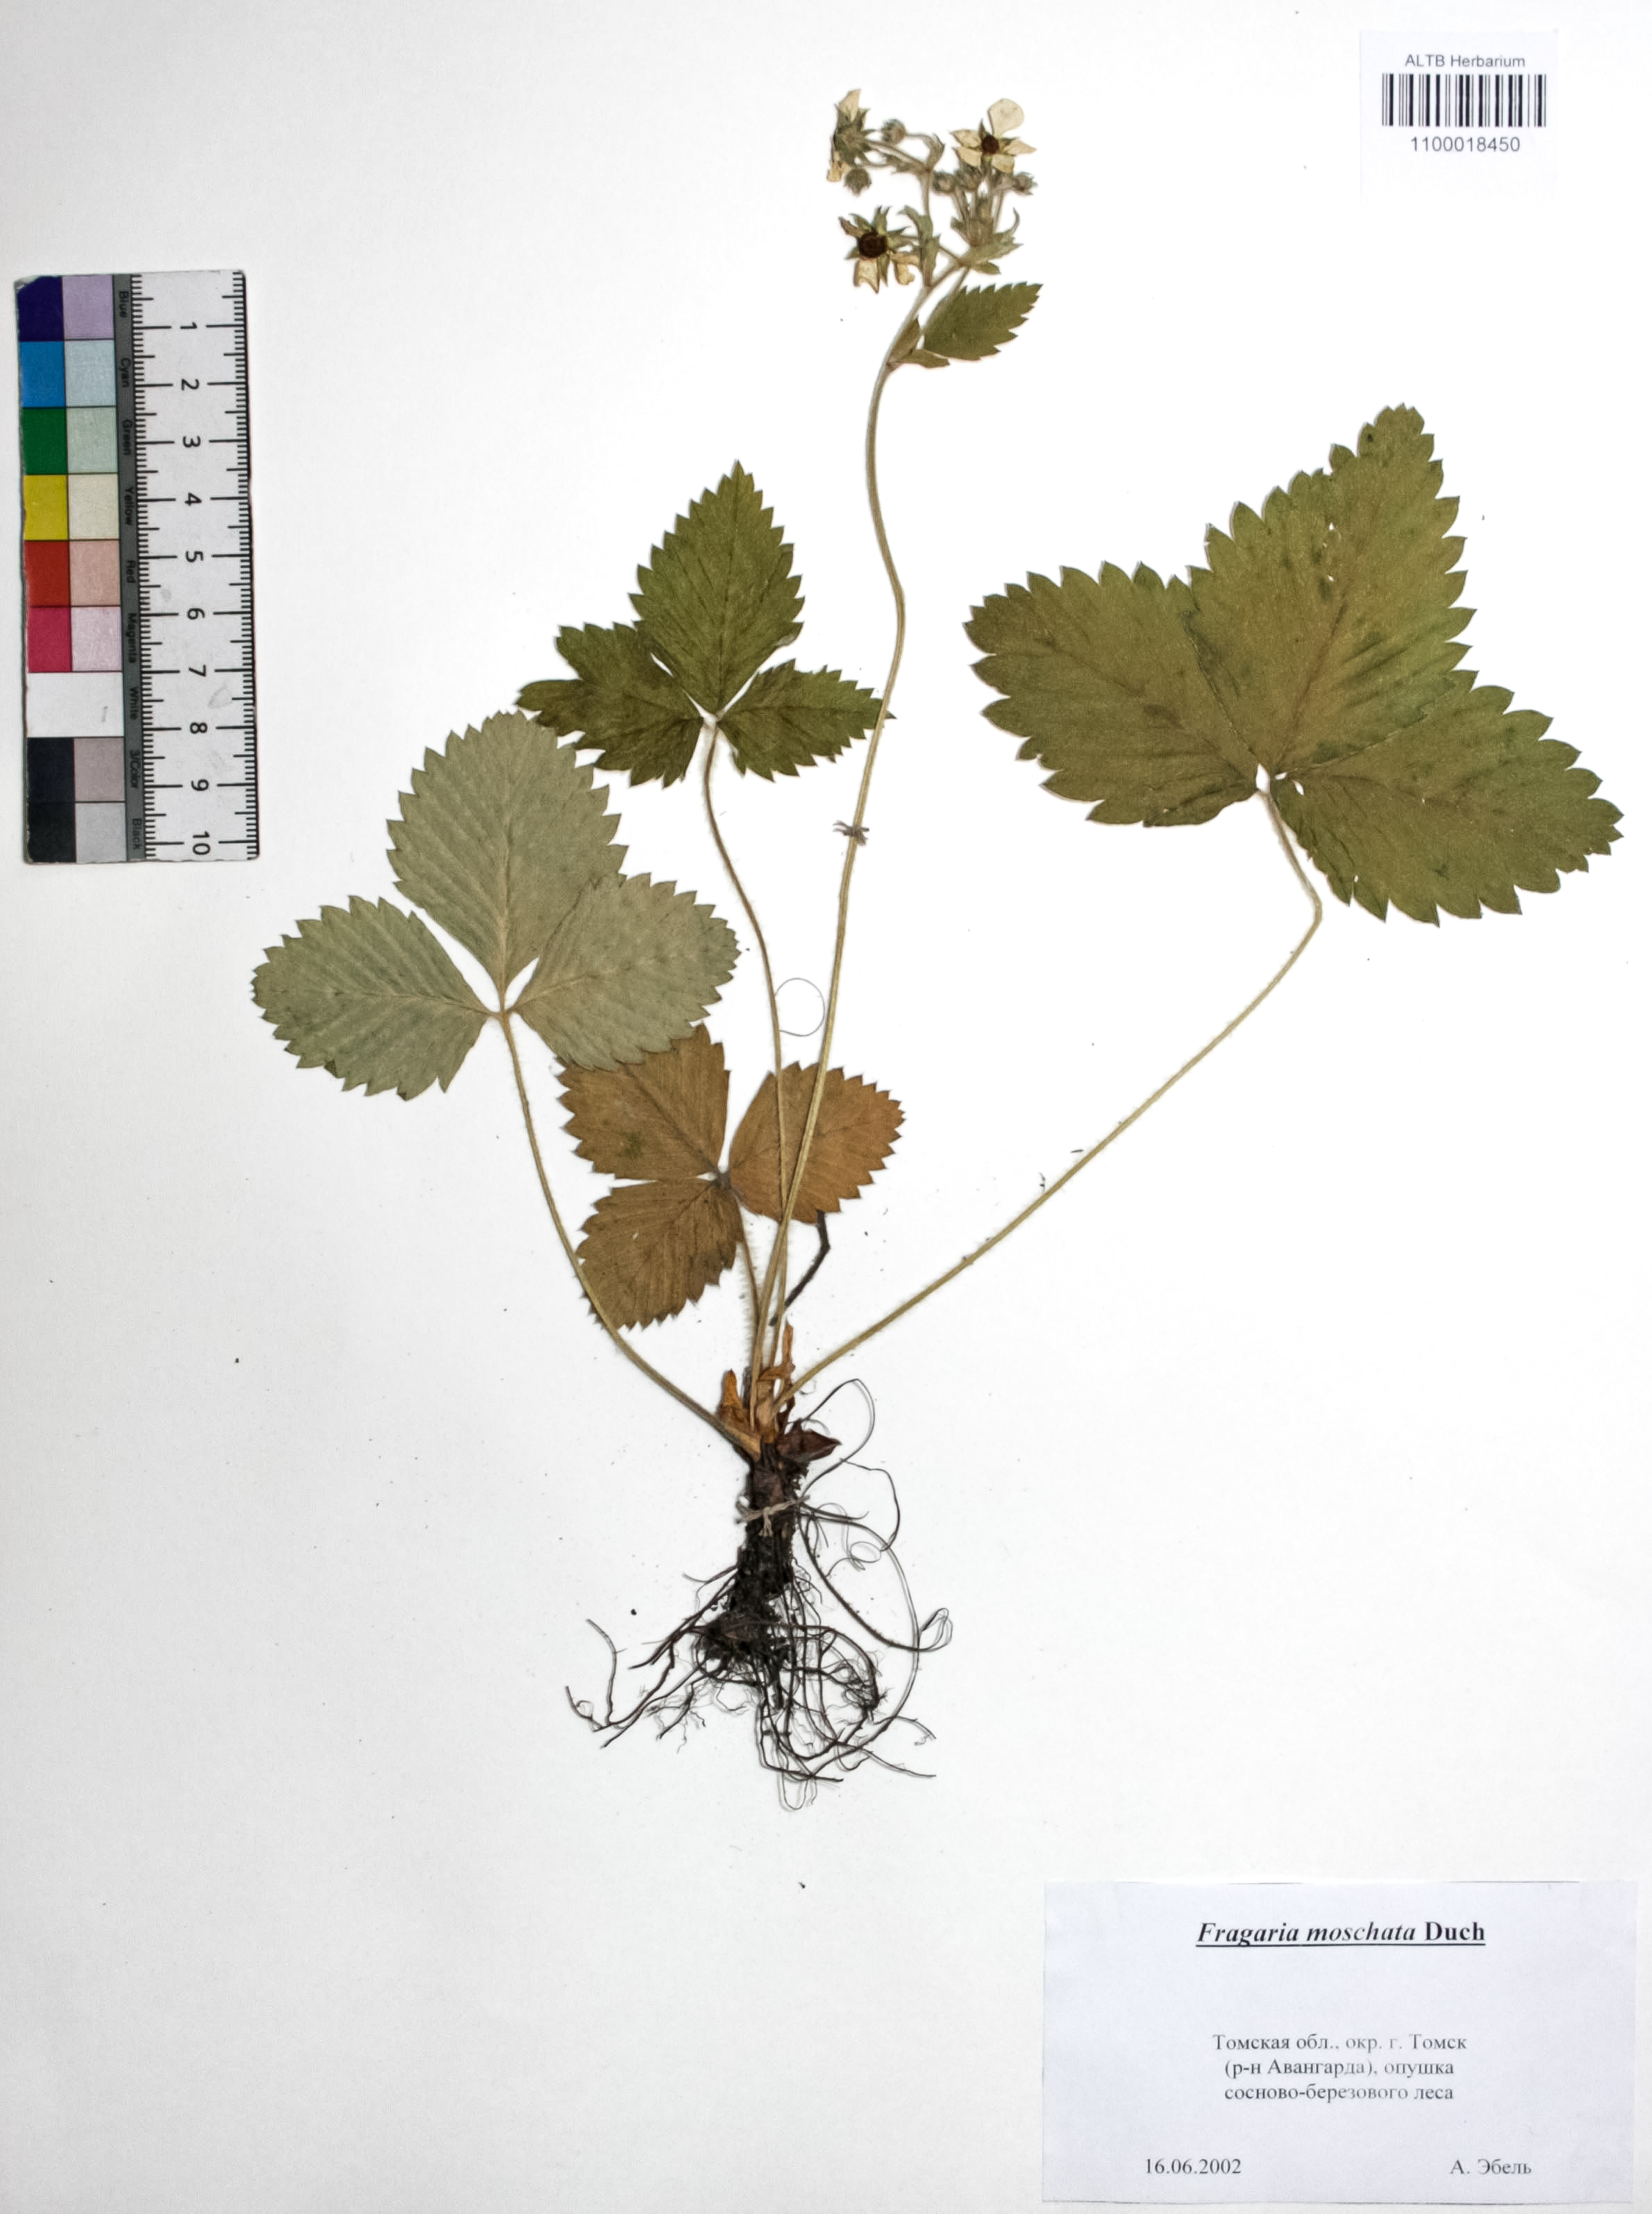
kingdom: Plantae
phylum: Tracheophyta
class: Magnoliopsida
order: Rosales
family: Rosaceae
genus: Fragaria
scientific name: Fragaria moschata
